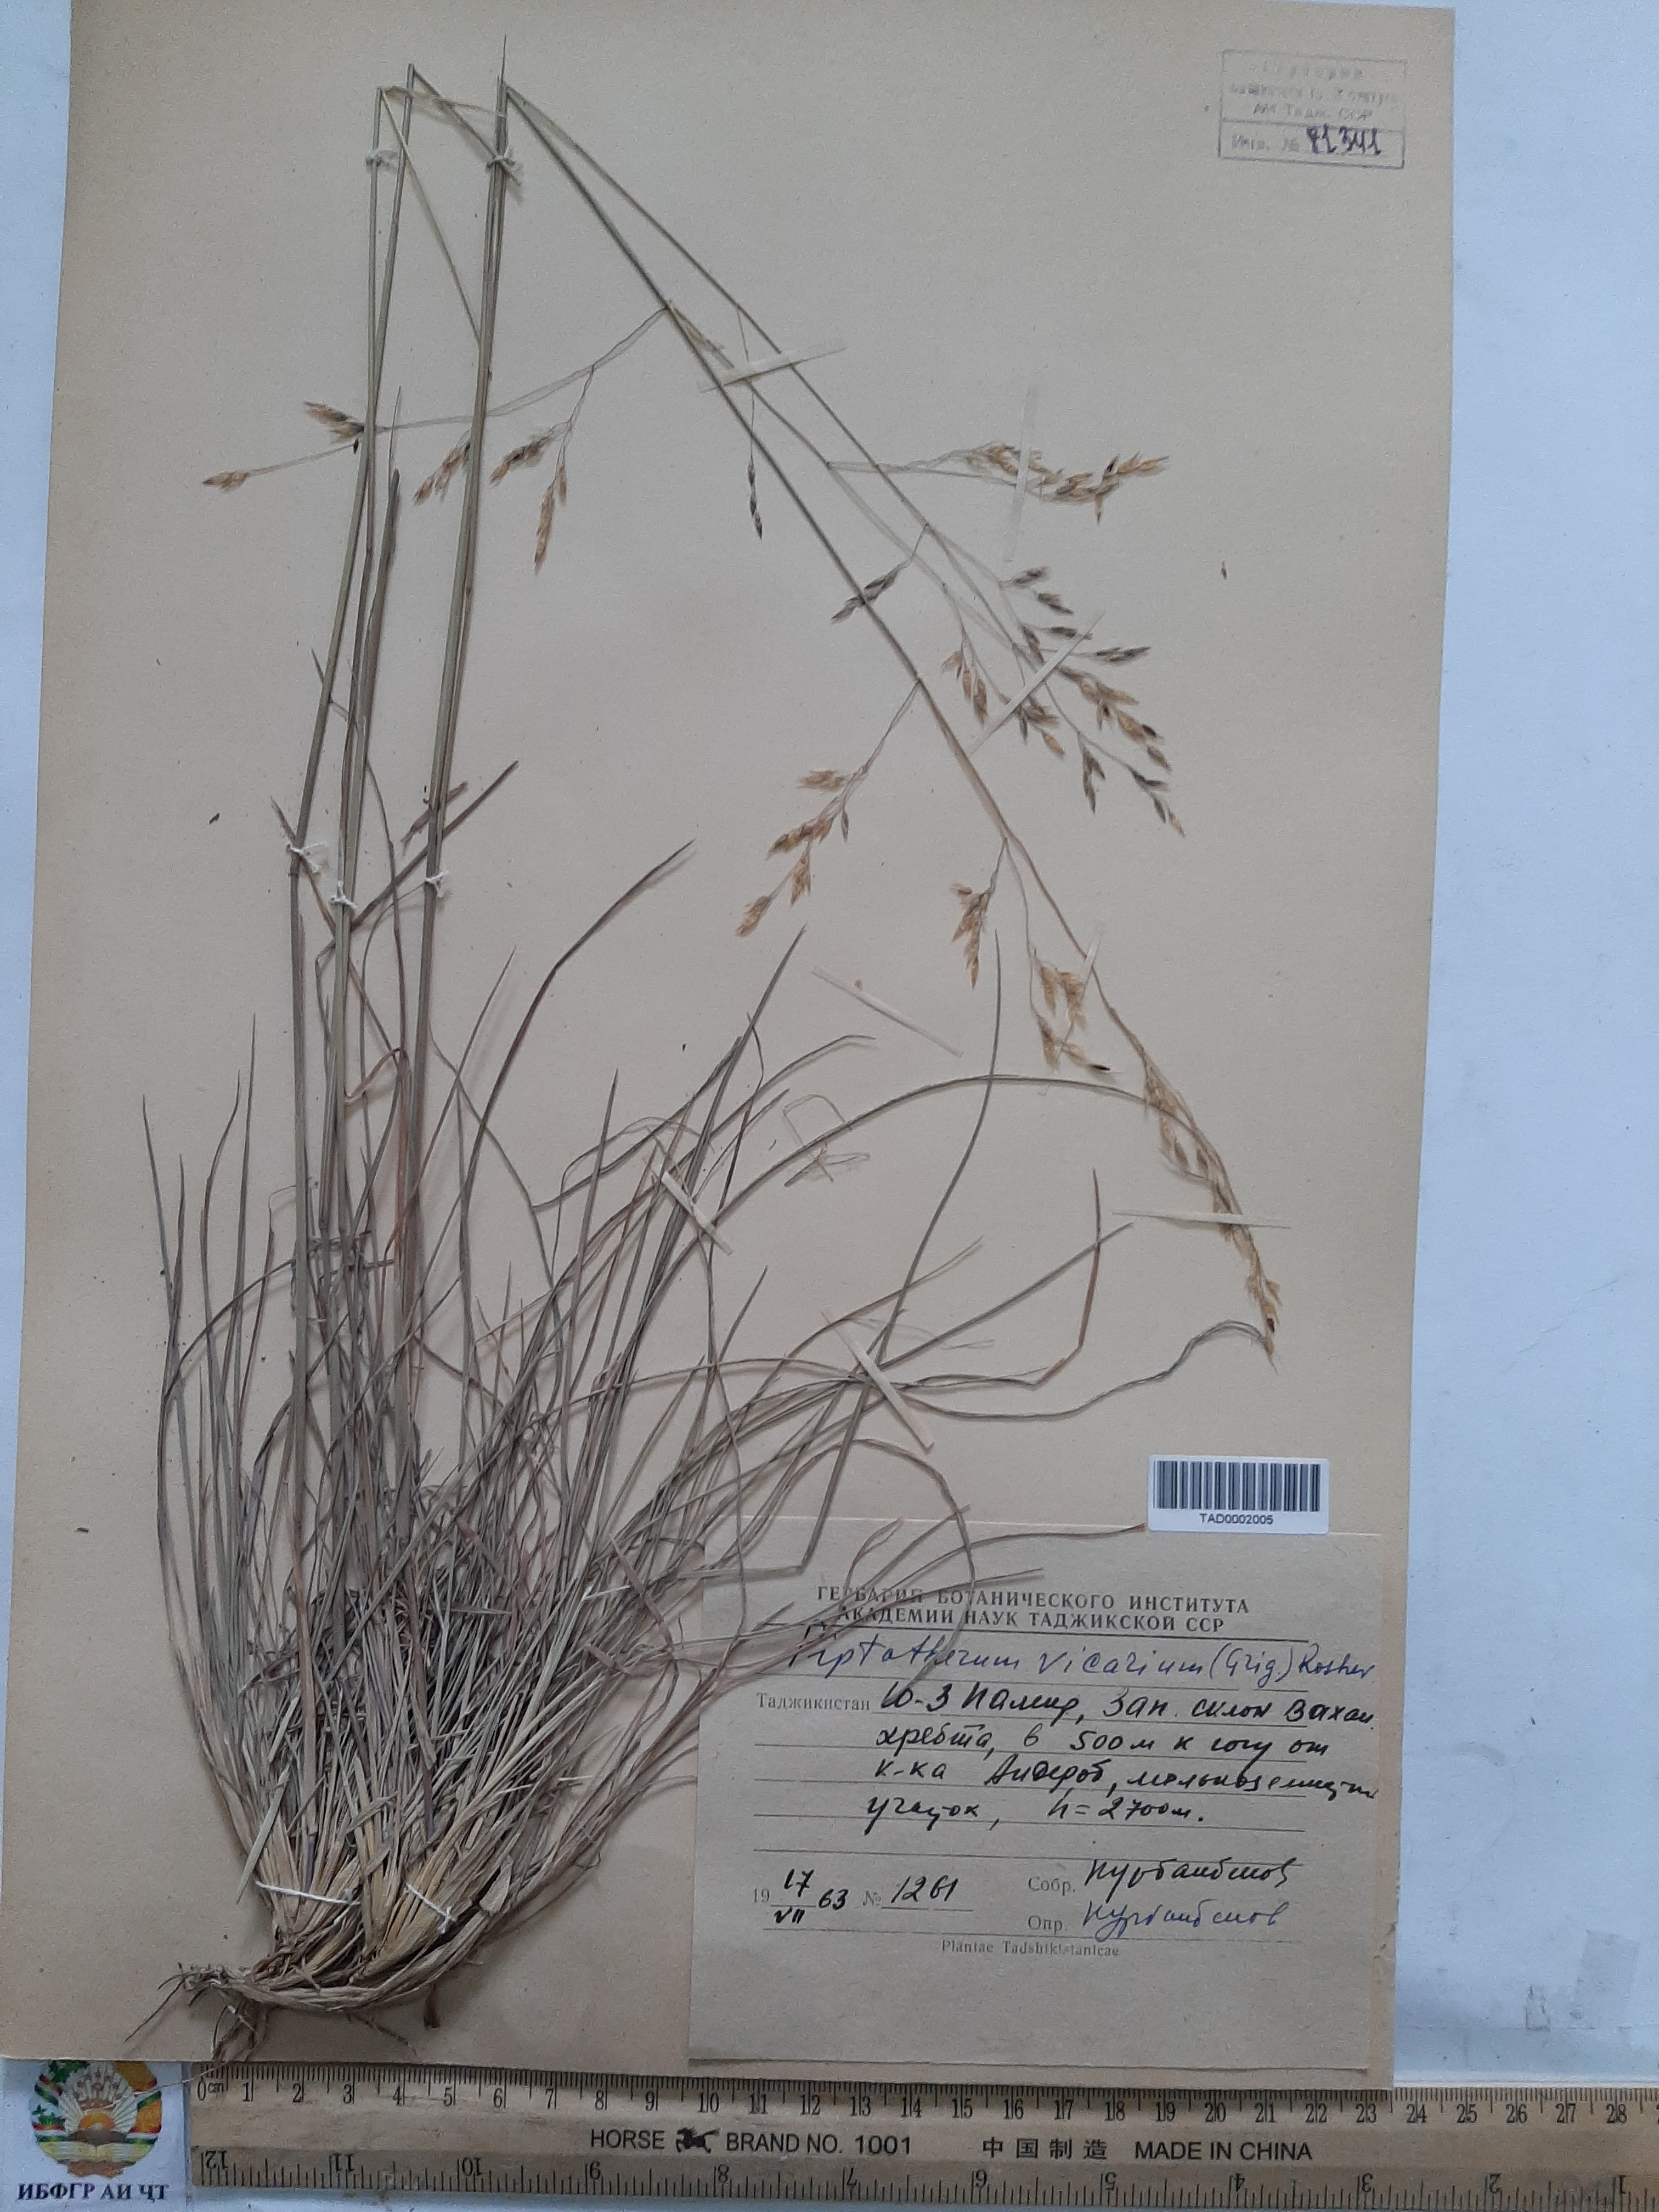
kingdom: Plantae
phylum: Tracheophyta
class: Liliopsida
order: Poales
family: Poaceae
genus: Piptatherum
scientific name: Piptatherum microcarpum
